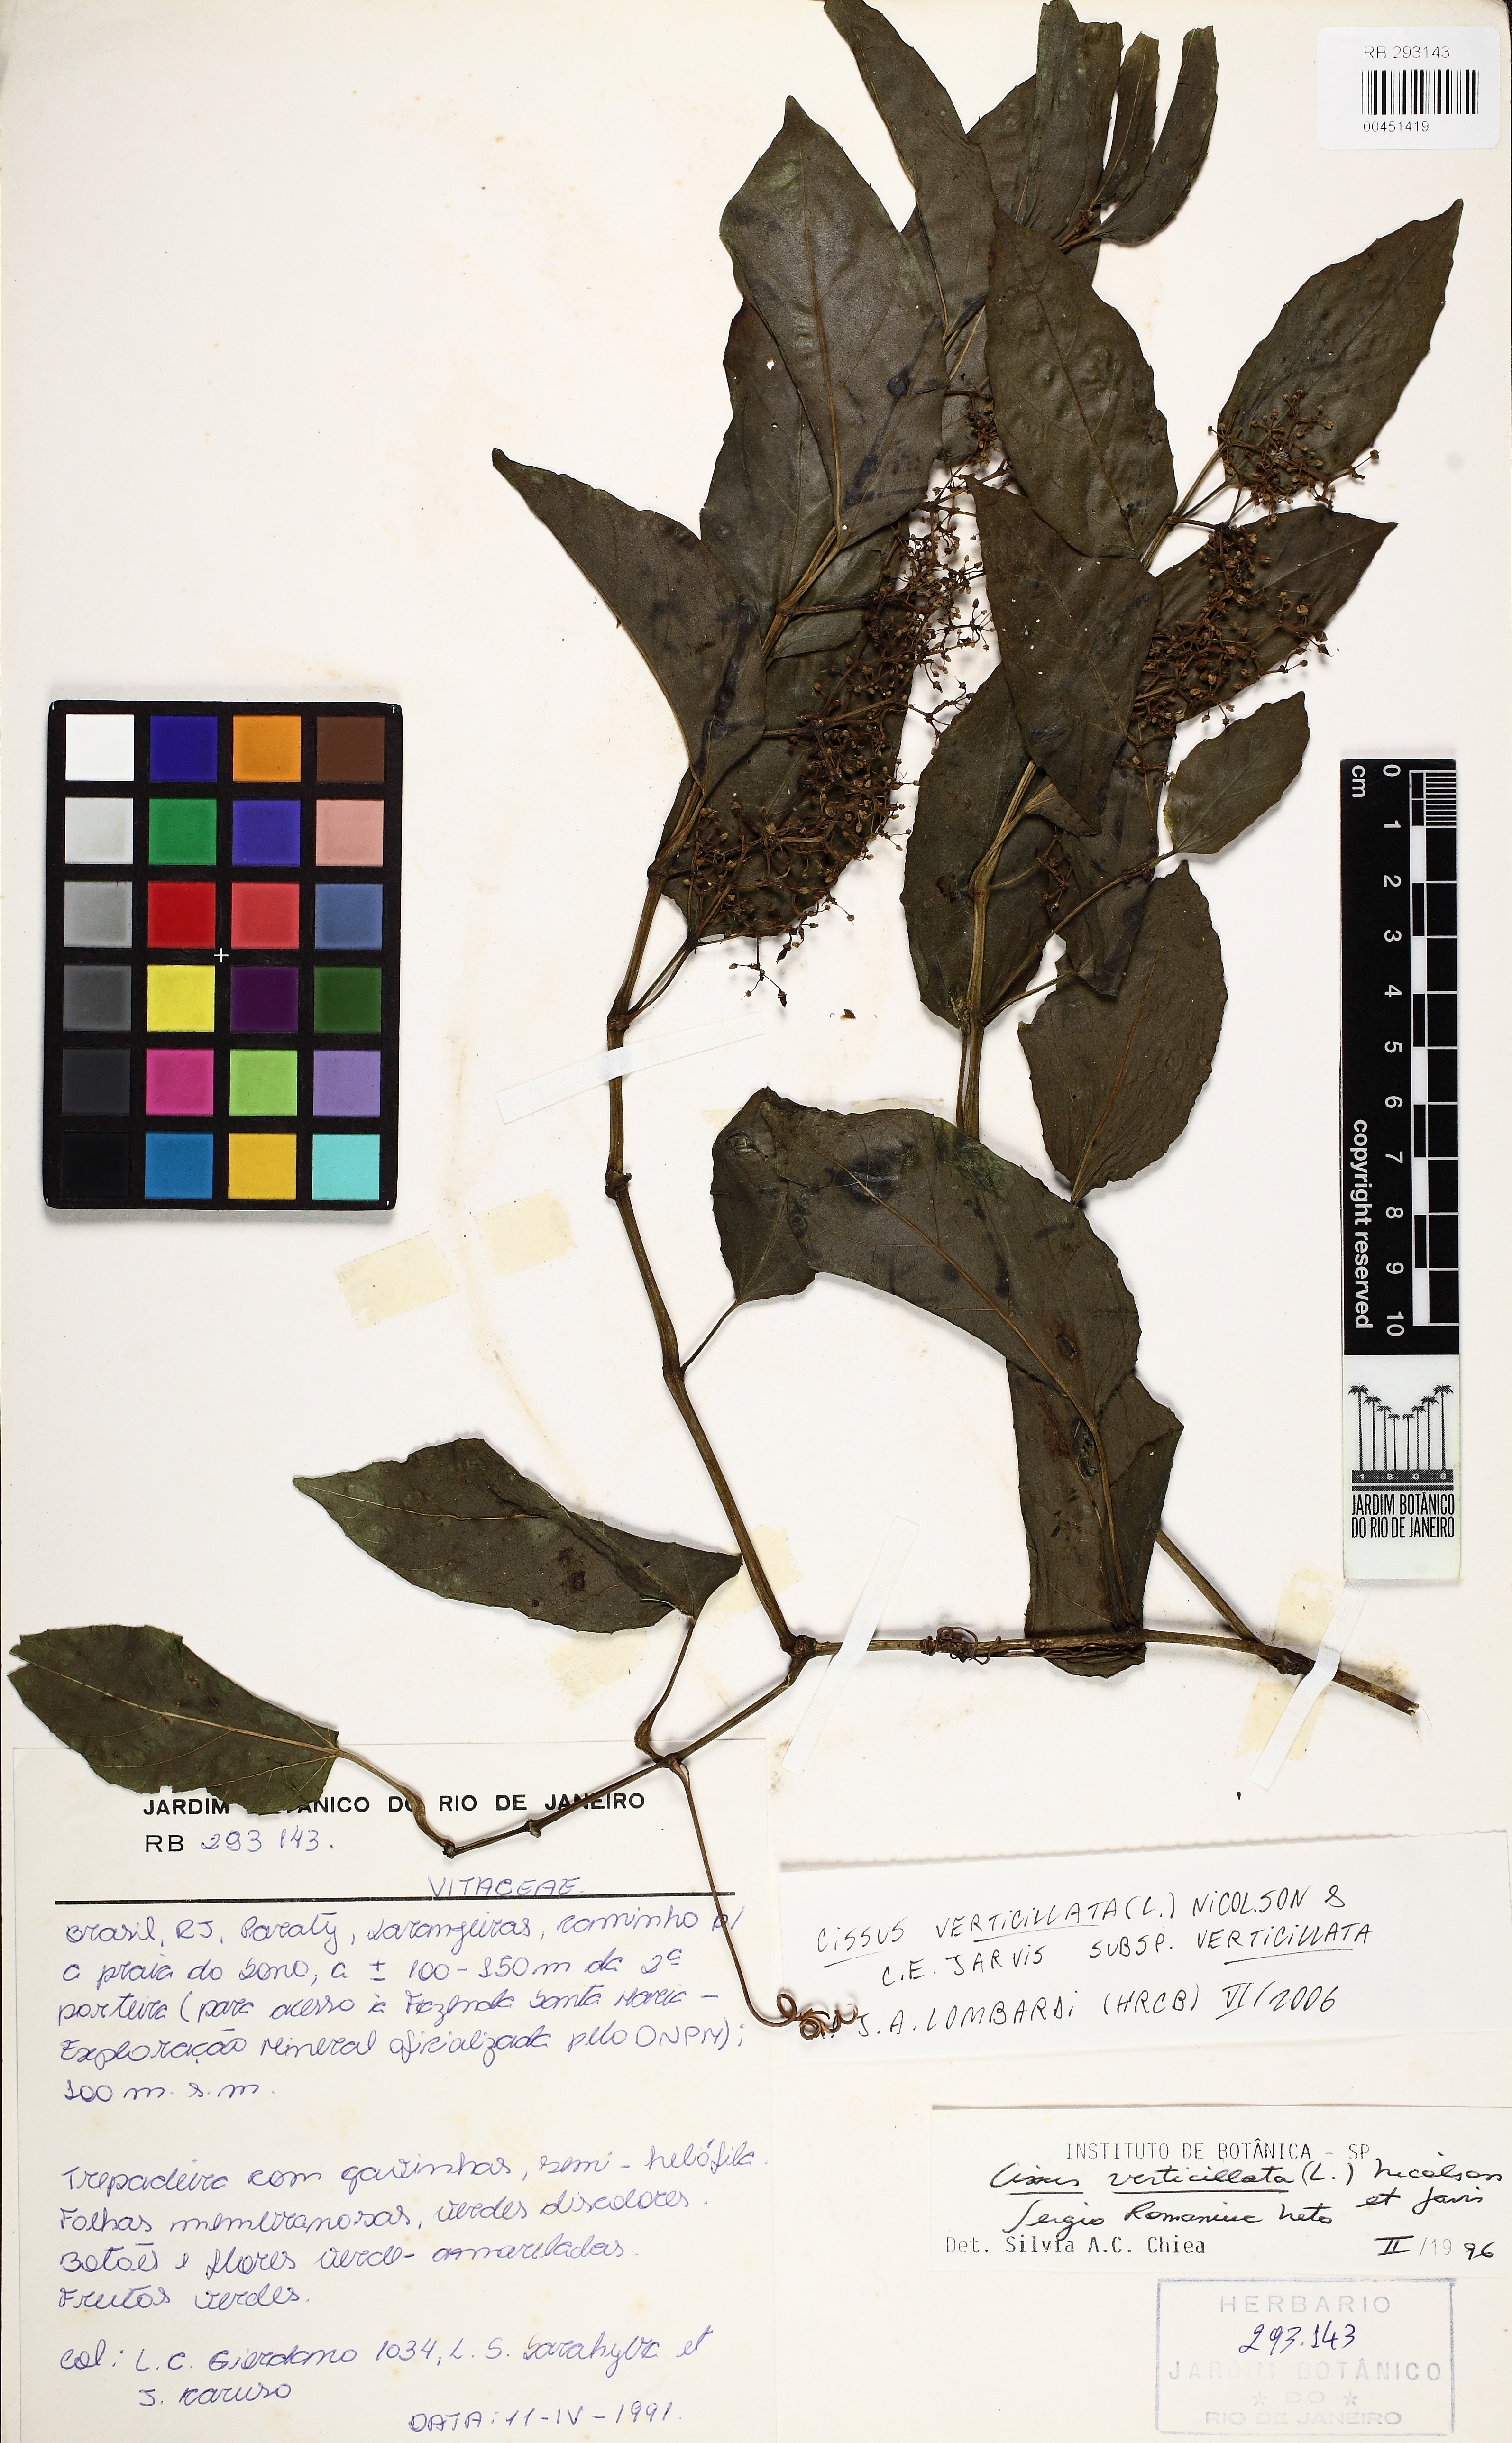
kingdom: Plantae
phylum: Tracheophyta
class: Magnoliopsida
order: Vitales
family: Vitaceae
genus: Cissus
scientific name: Cissus verticillata
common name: Princess vine
